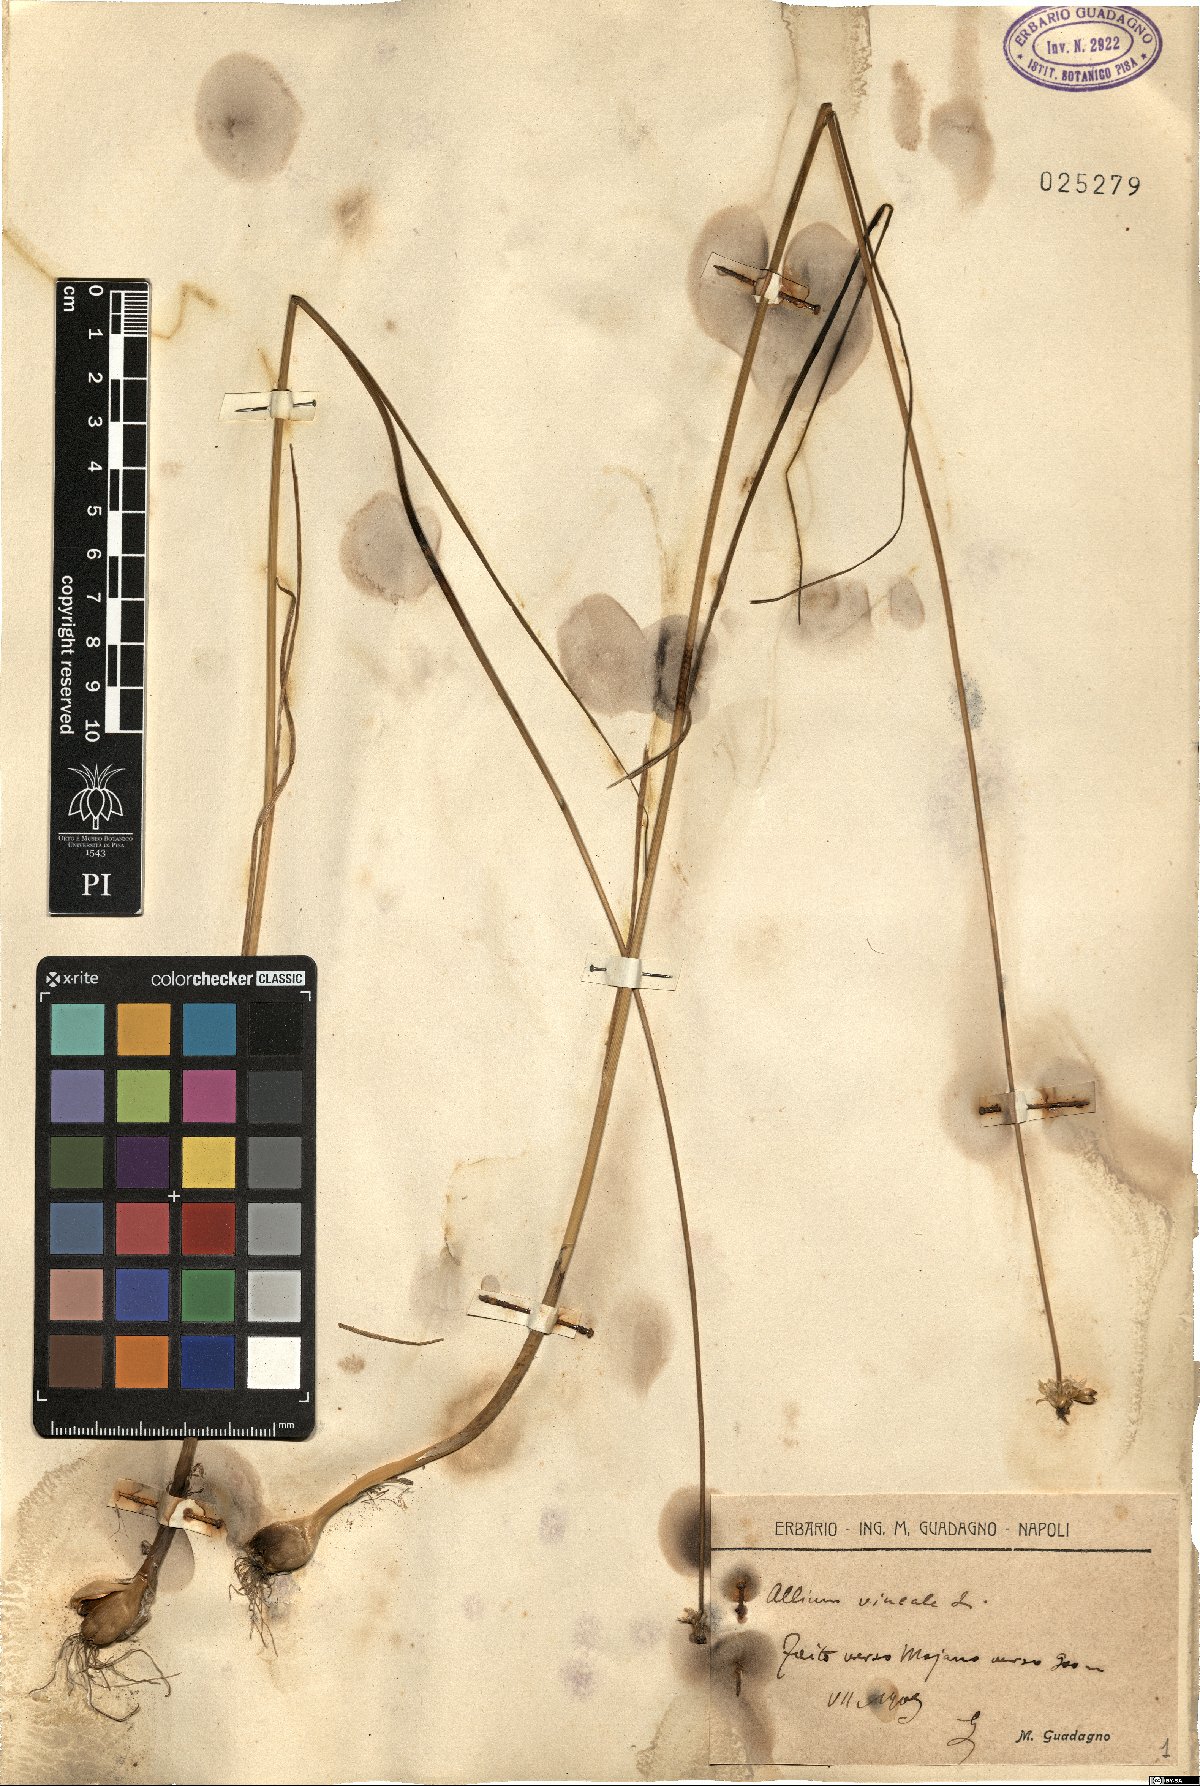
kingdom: Plantae
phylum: Tracheophyta
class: Liliopsida
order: Asparagales
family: Amaryllidaceae
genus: Allium
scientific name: Allium vineale
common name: Crow garlic
